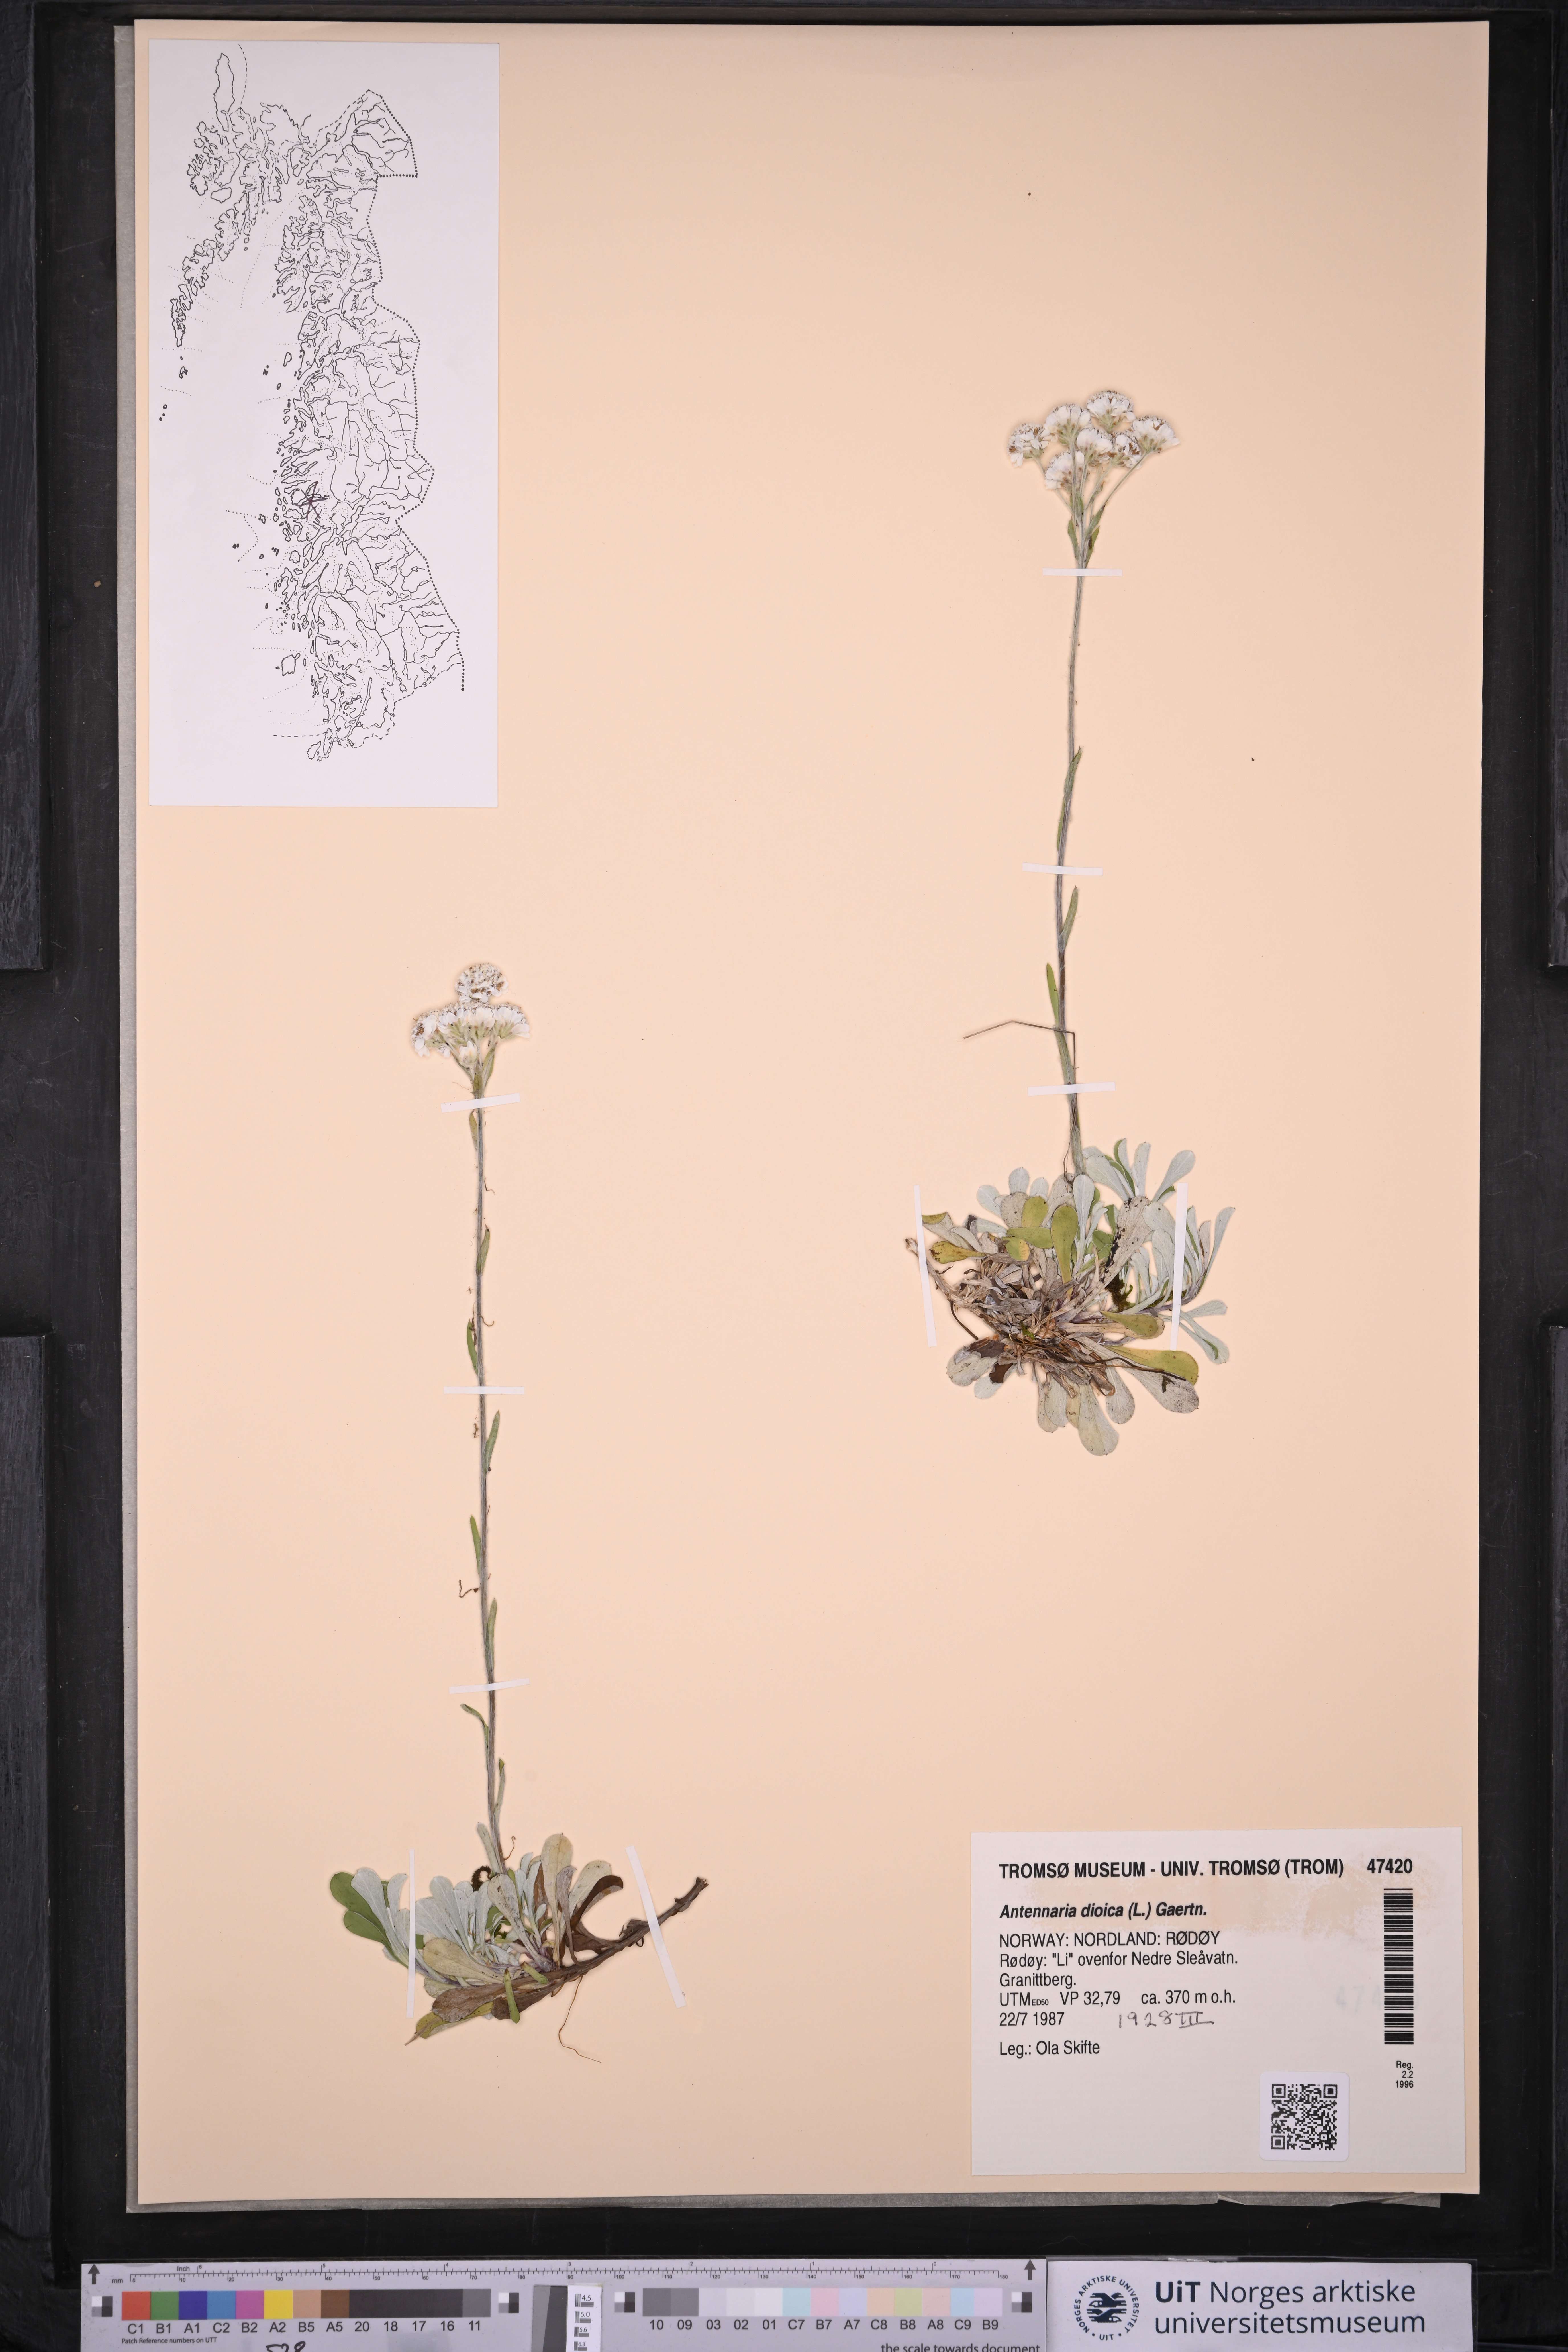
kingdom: Plantae
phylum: Tracheophyta
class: Magnoliopsida
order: Asterales
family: Asteraceae
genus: Antennaria
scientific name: Antennaria dioica
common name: Mountain everlasting
